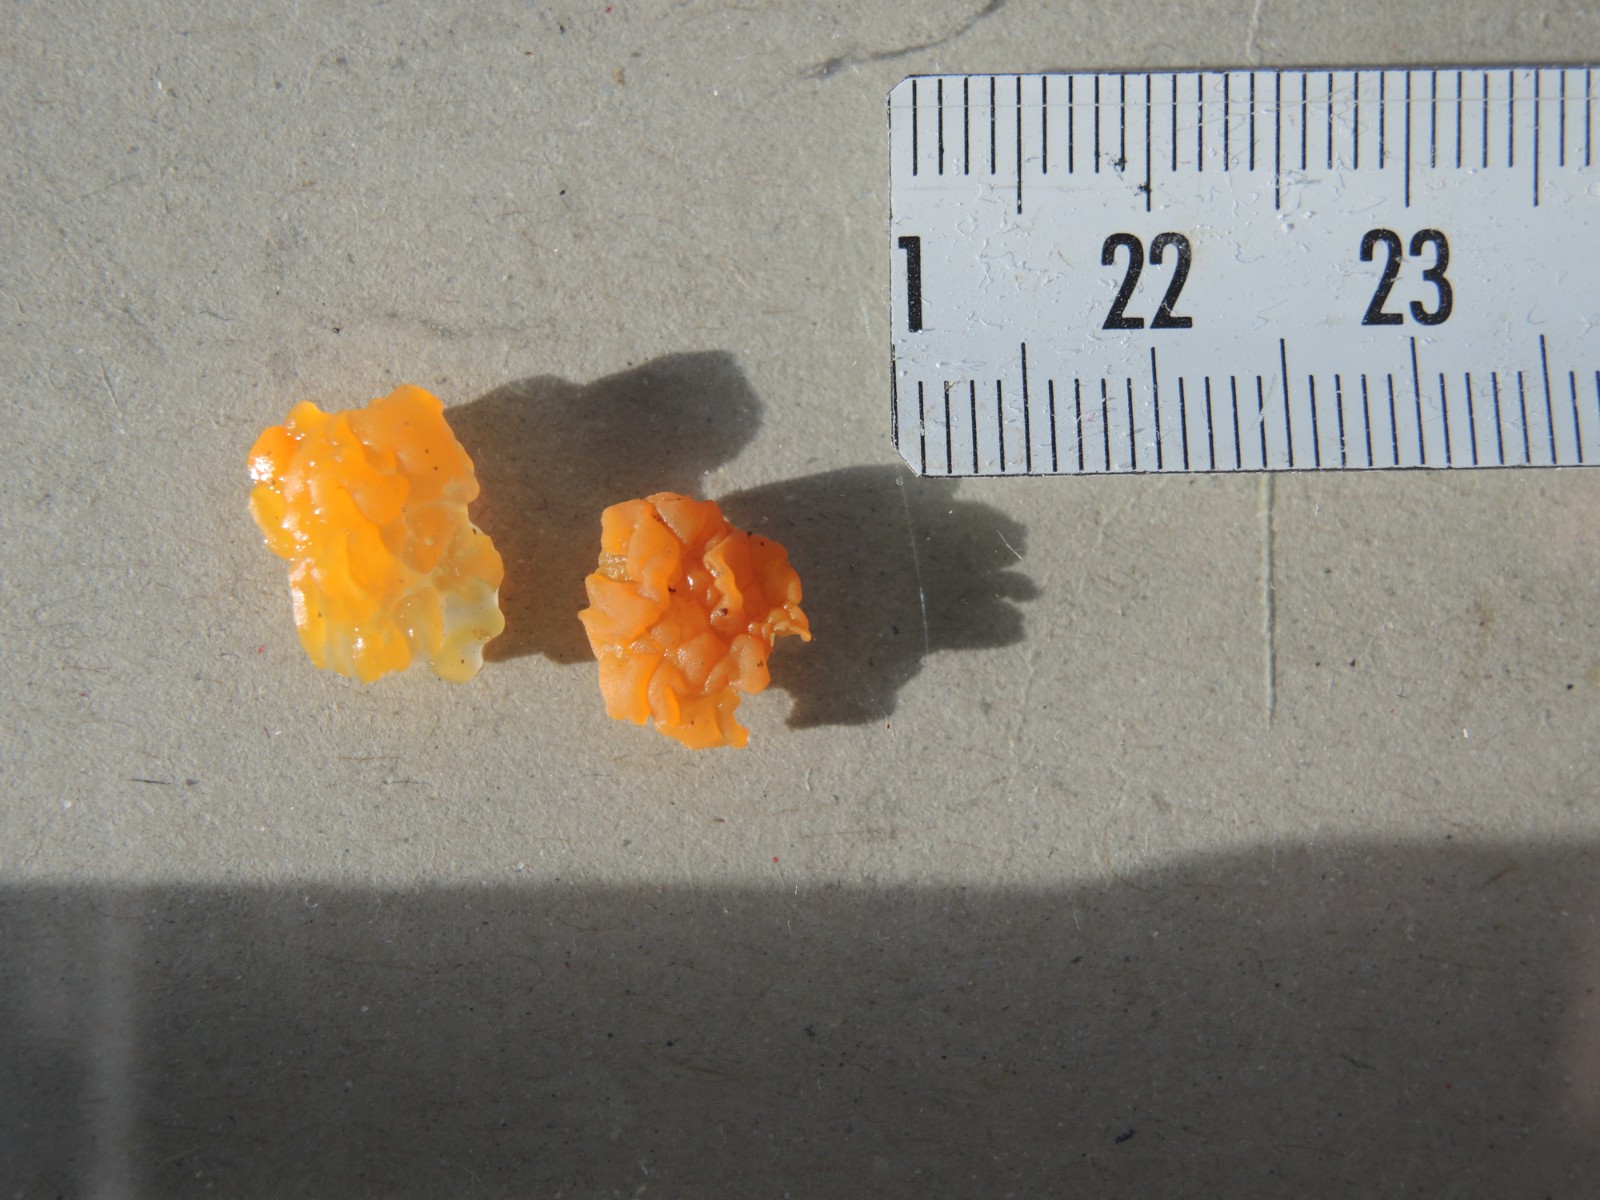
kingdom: Fungi
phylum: Basidiomycota
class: Dacrymycetes
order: Dacrymycetales
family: Dacrymycetaceae
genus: Dacrymyces
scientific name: Dacrymyces
